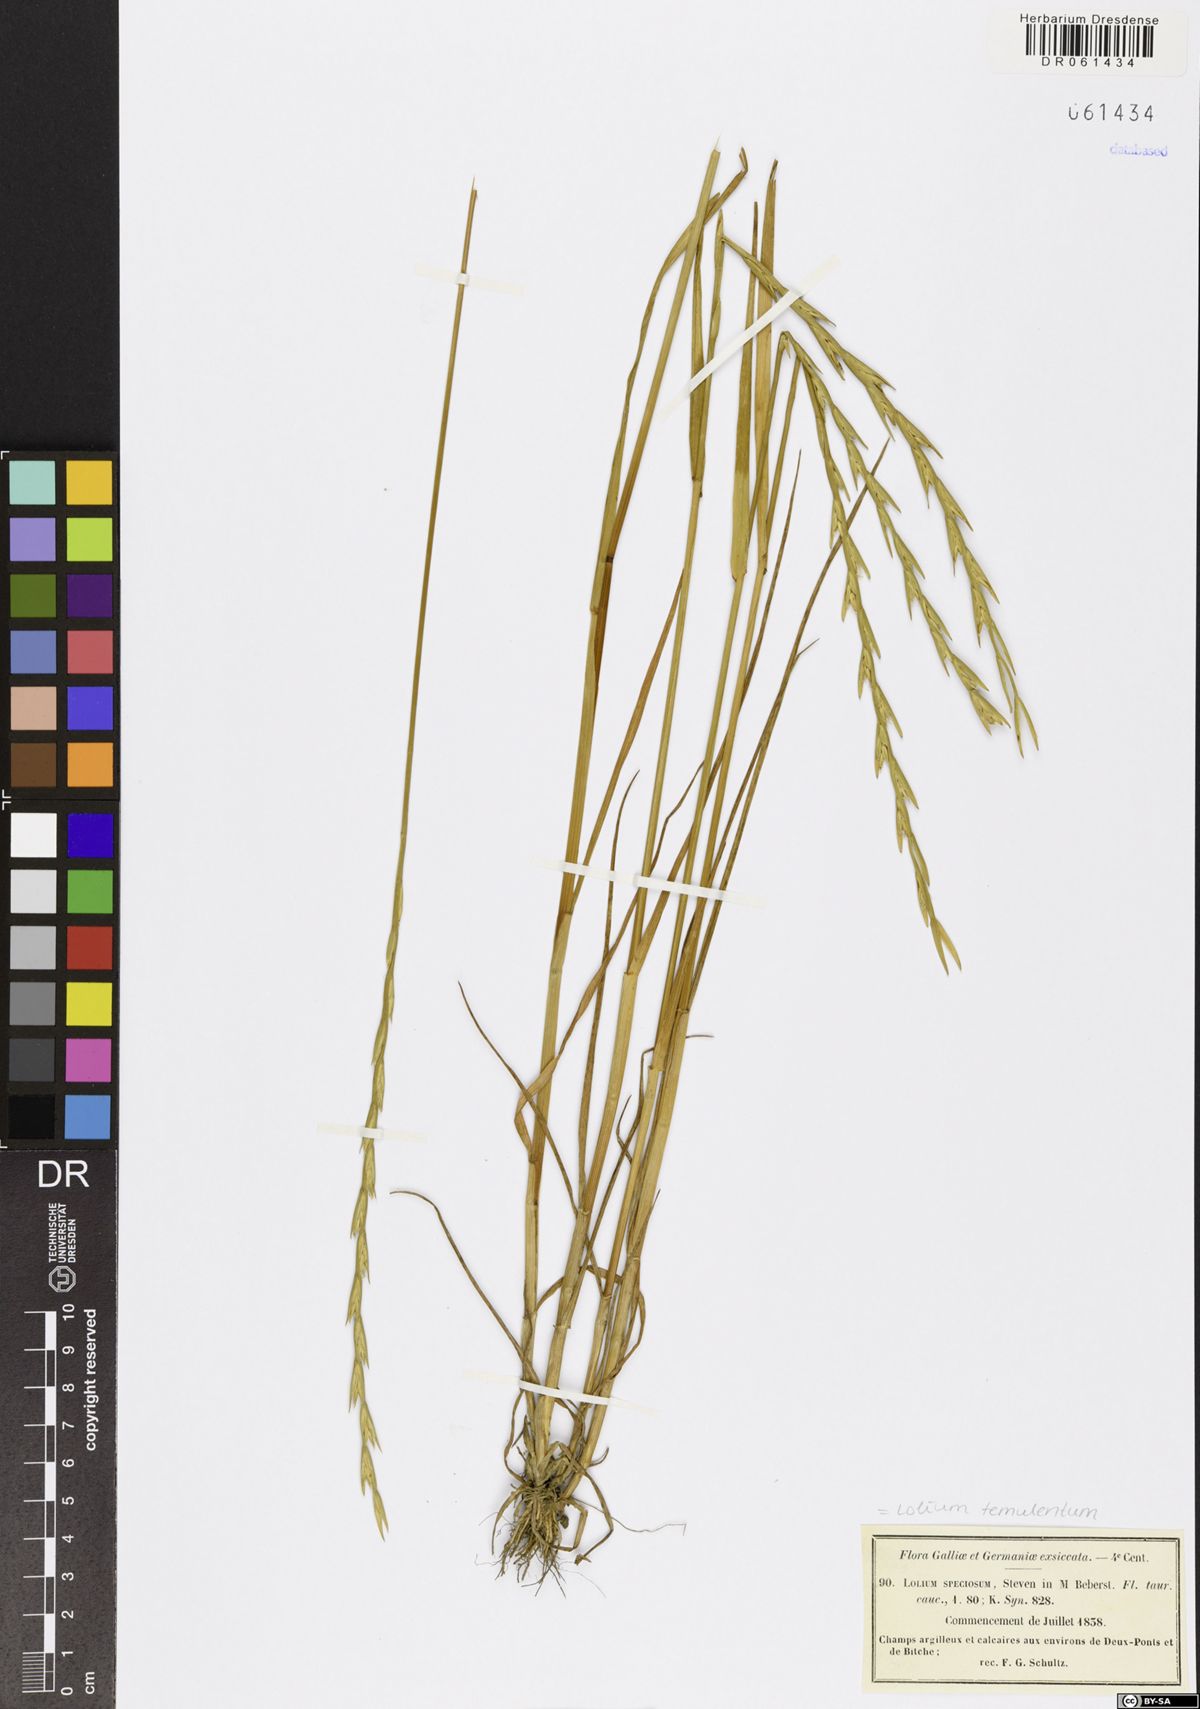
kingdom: Plantae
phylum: Tracheophyta
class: Liliopsida
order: Poales
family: Poaceae
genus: Lolium
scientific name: Lolium temulentum
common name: Darnel
